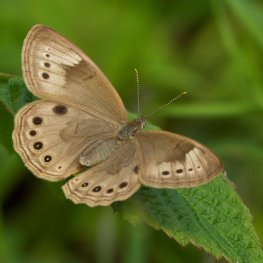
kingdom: Animalia
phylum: Arthropoda
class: Insecta
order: Lepidoptera
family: Nymphalidae
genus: Lethe
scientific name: Lethe eurydice
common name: Eyed Brown
